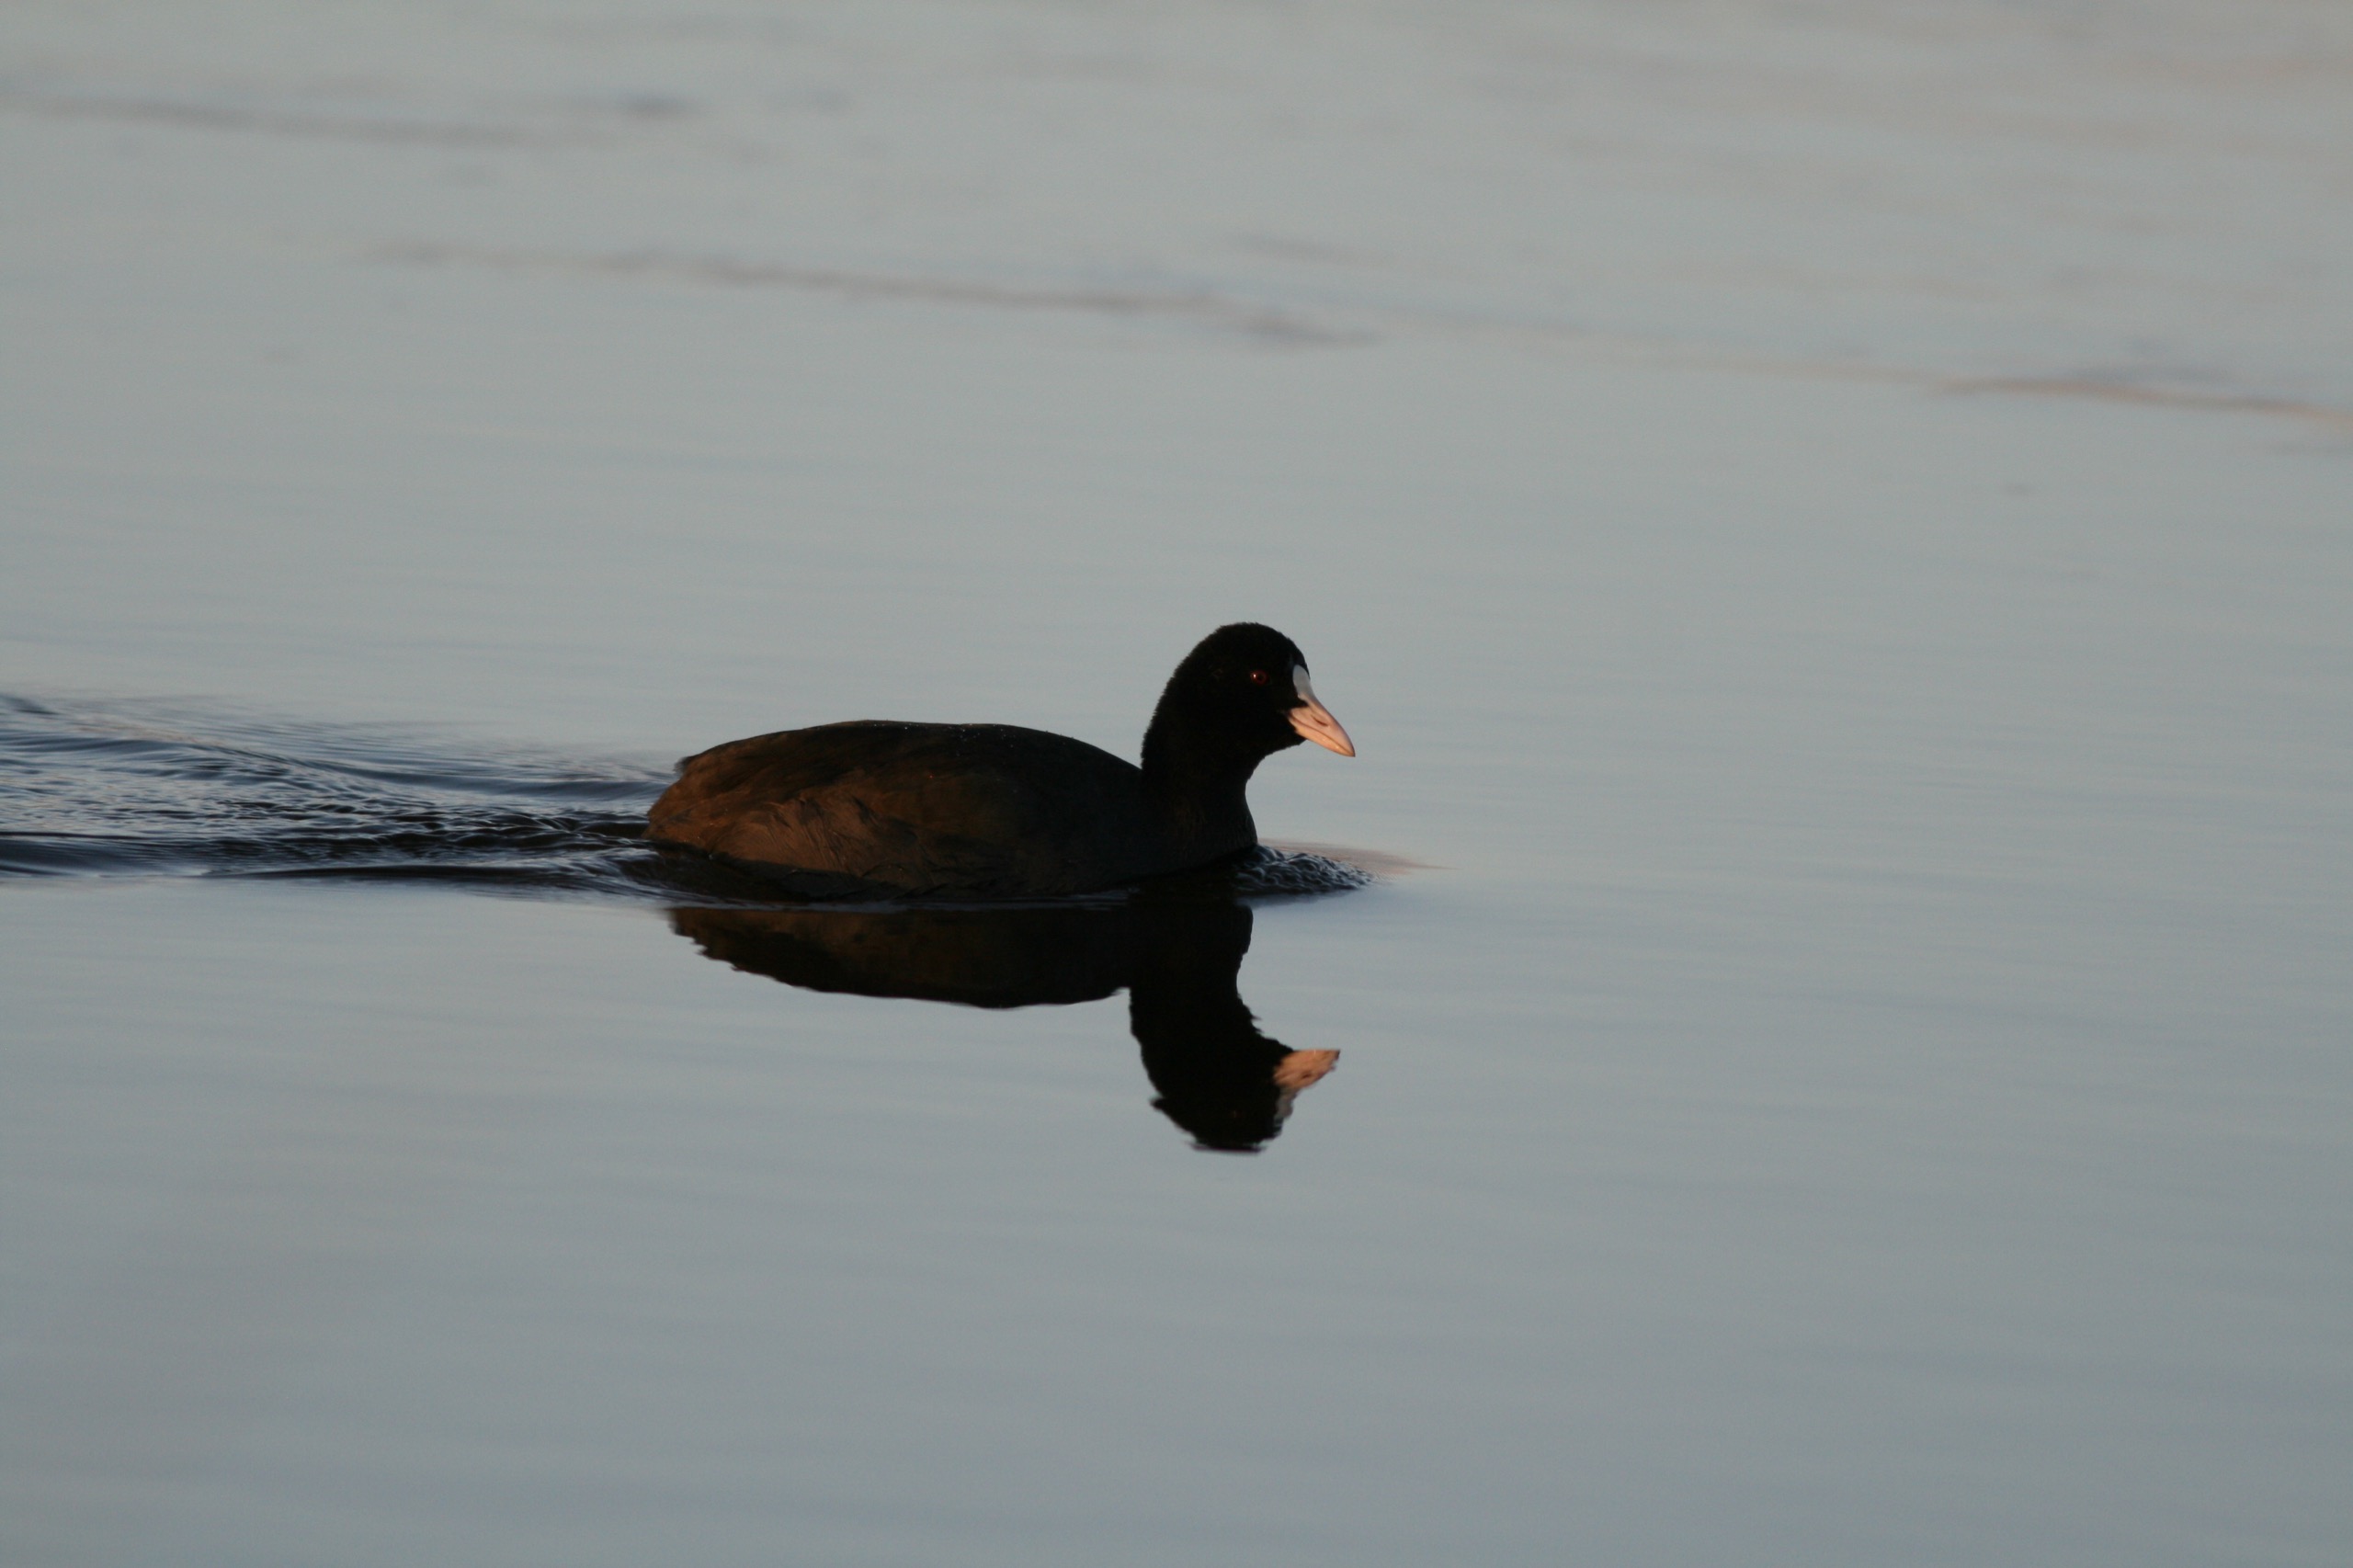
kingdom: Animalia
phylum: Chordata
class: Aves
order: Gruiformes
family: Rallidae
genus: Fulica
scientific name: Fulica atra
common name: Blishøne
